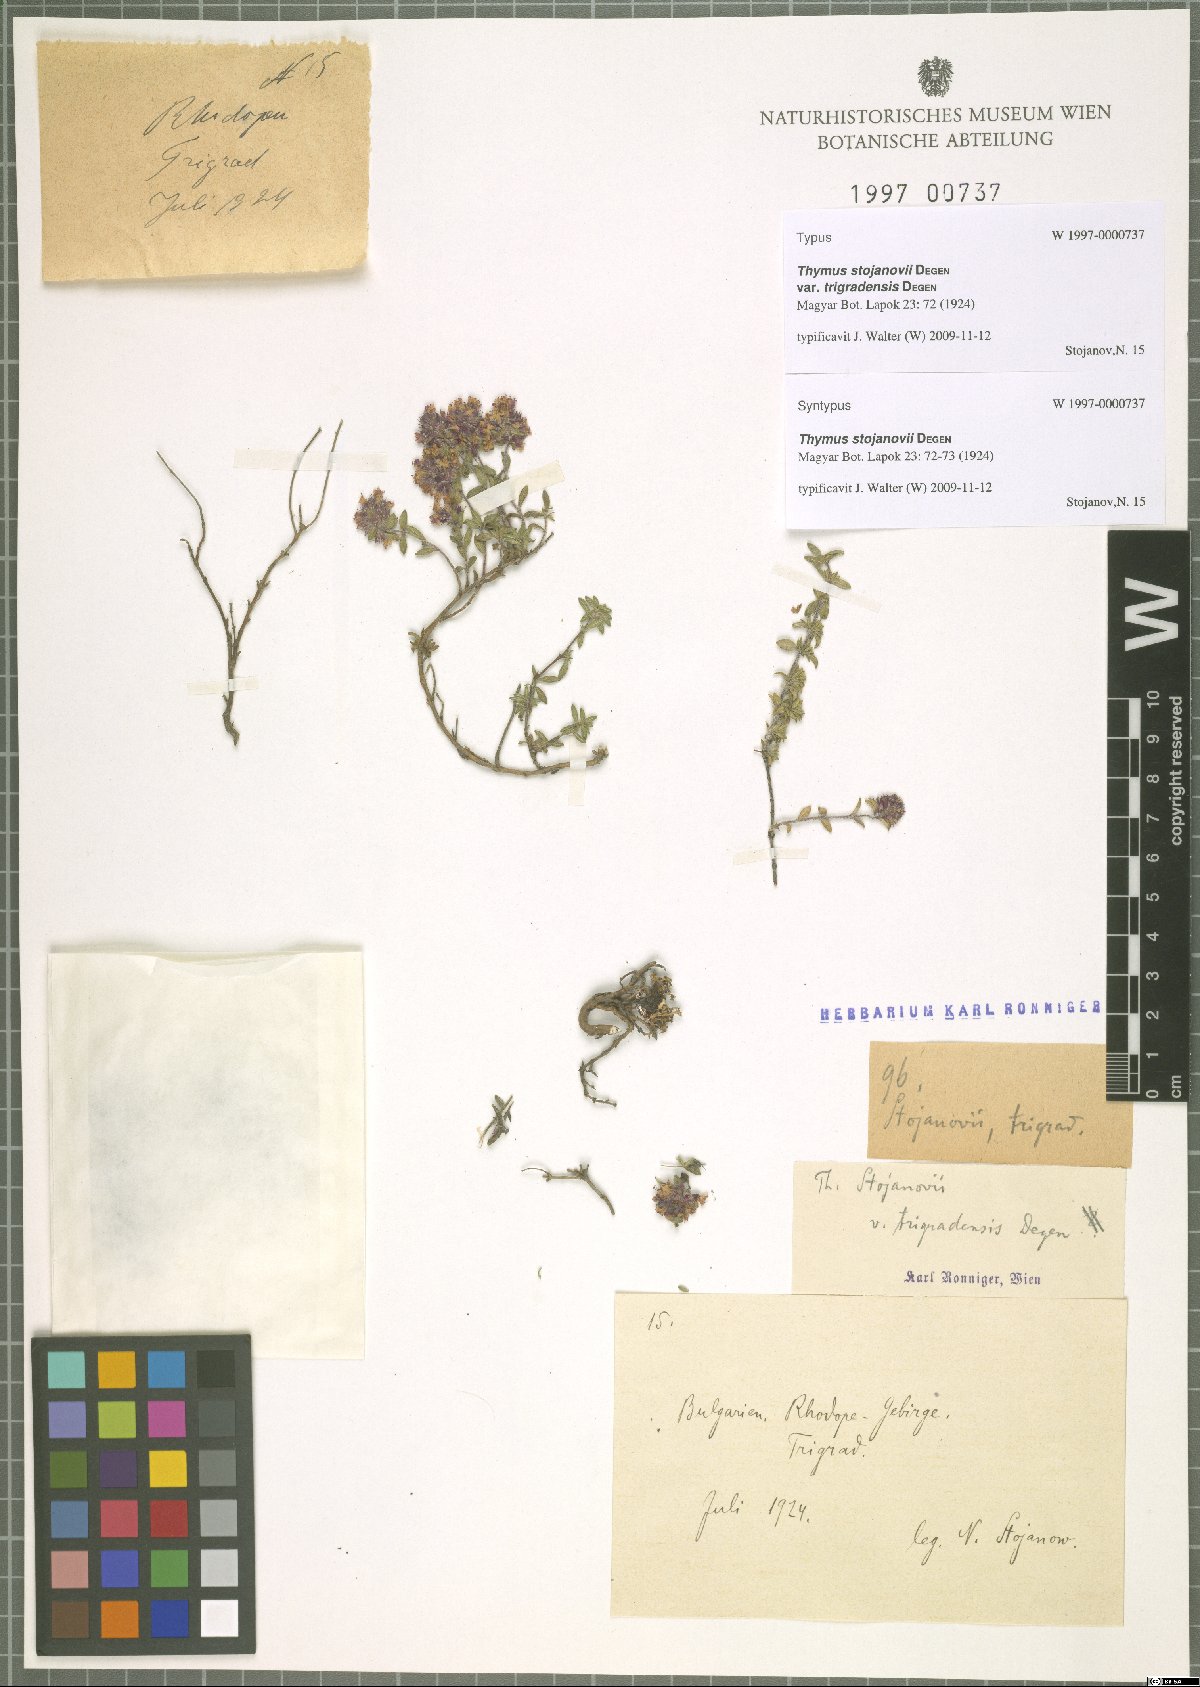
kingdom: Plantae
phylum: Tracheophyta
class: Magnoliopsida
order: Lamiales
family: Lamiaceae
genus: Thymus
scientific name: Thymus stojanovii
